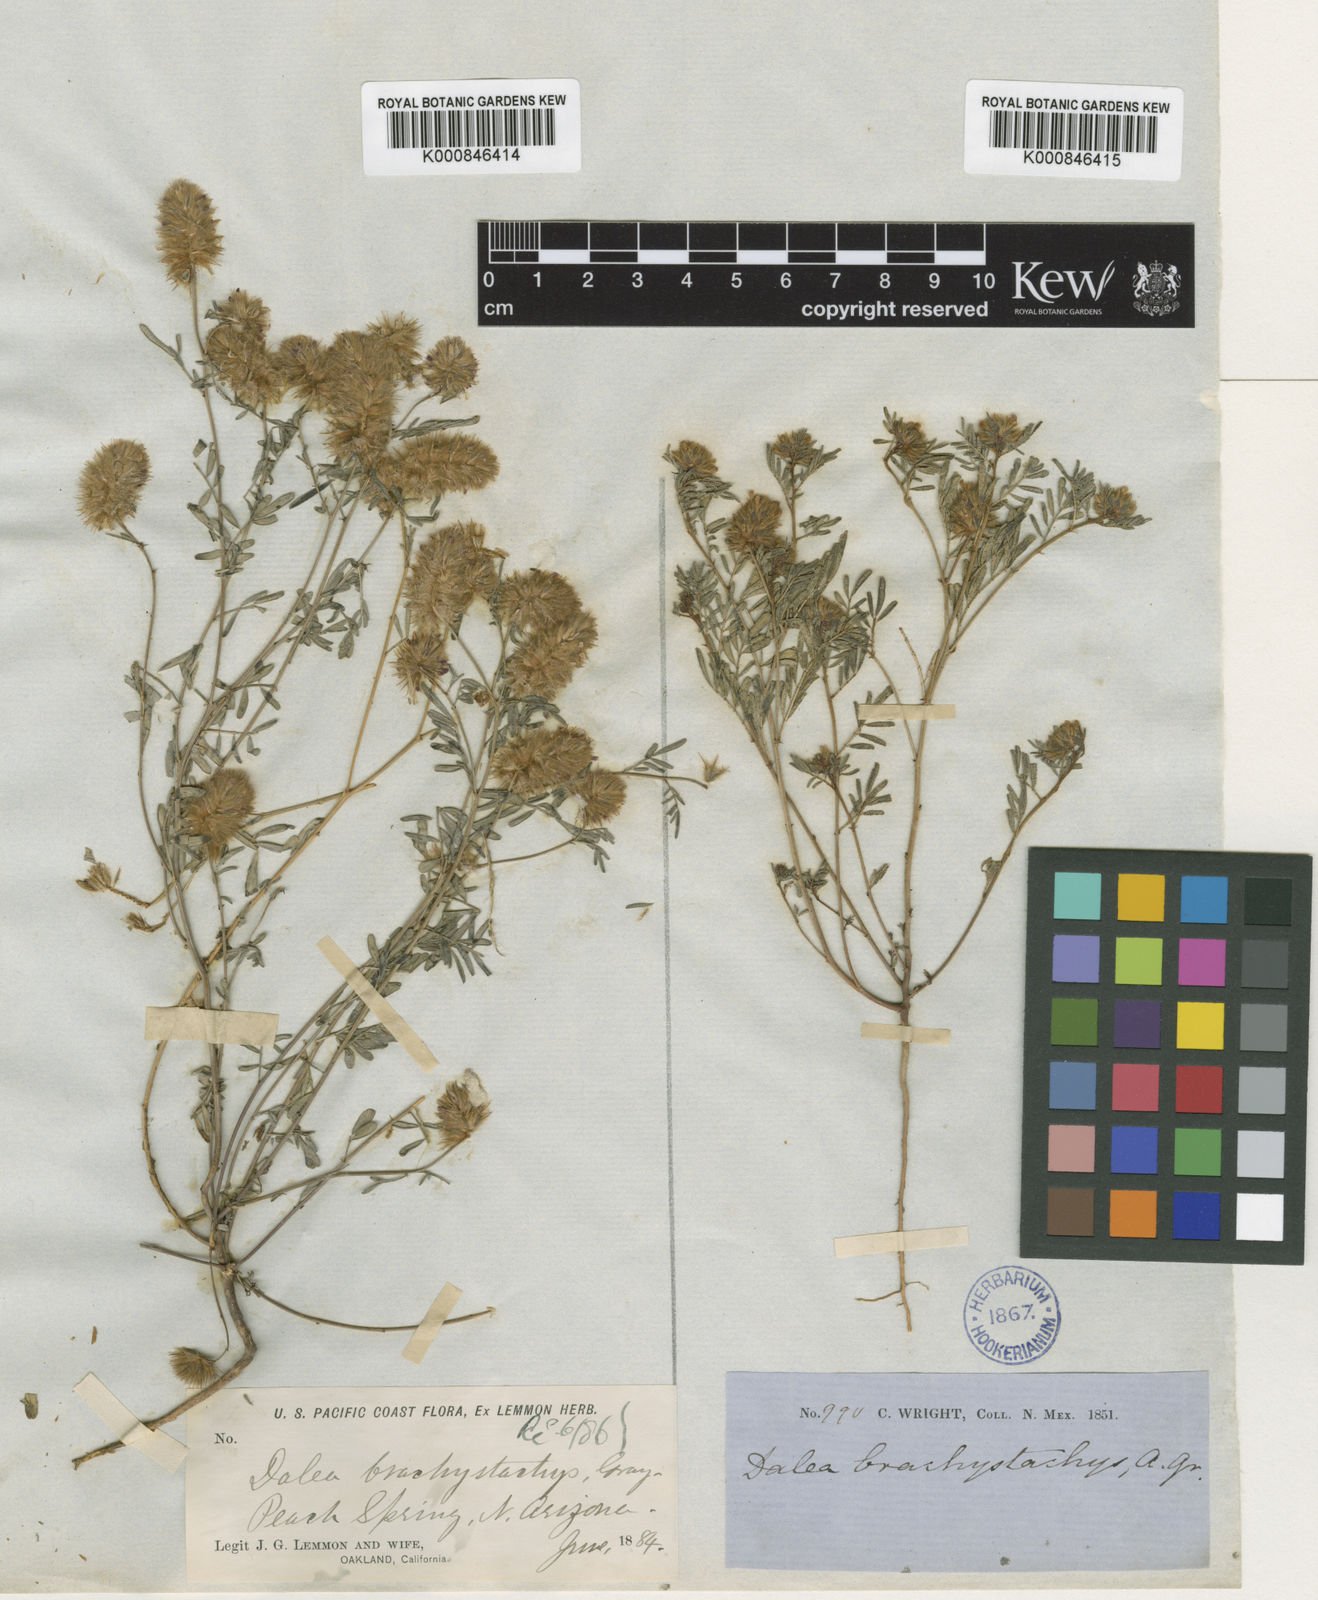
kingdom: Plantae
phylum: Tracheophyta
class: Magnoliopsida
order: Fabales
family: Fabaceae
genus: Dalea
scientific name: Dalea
